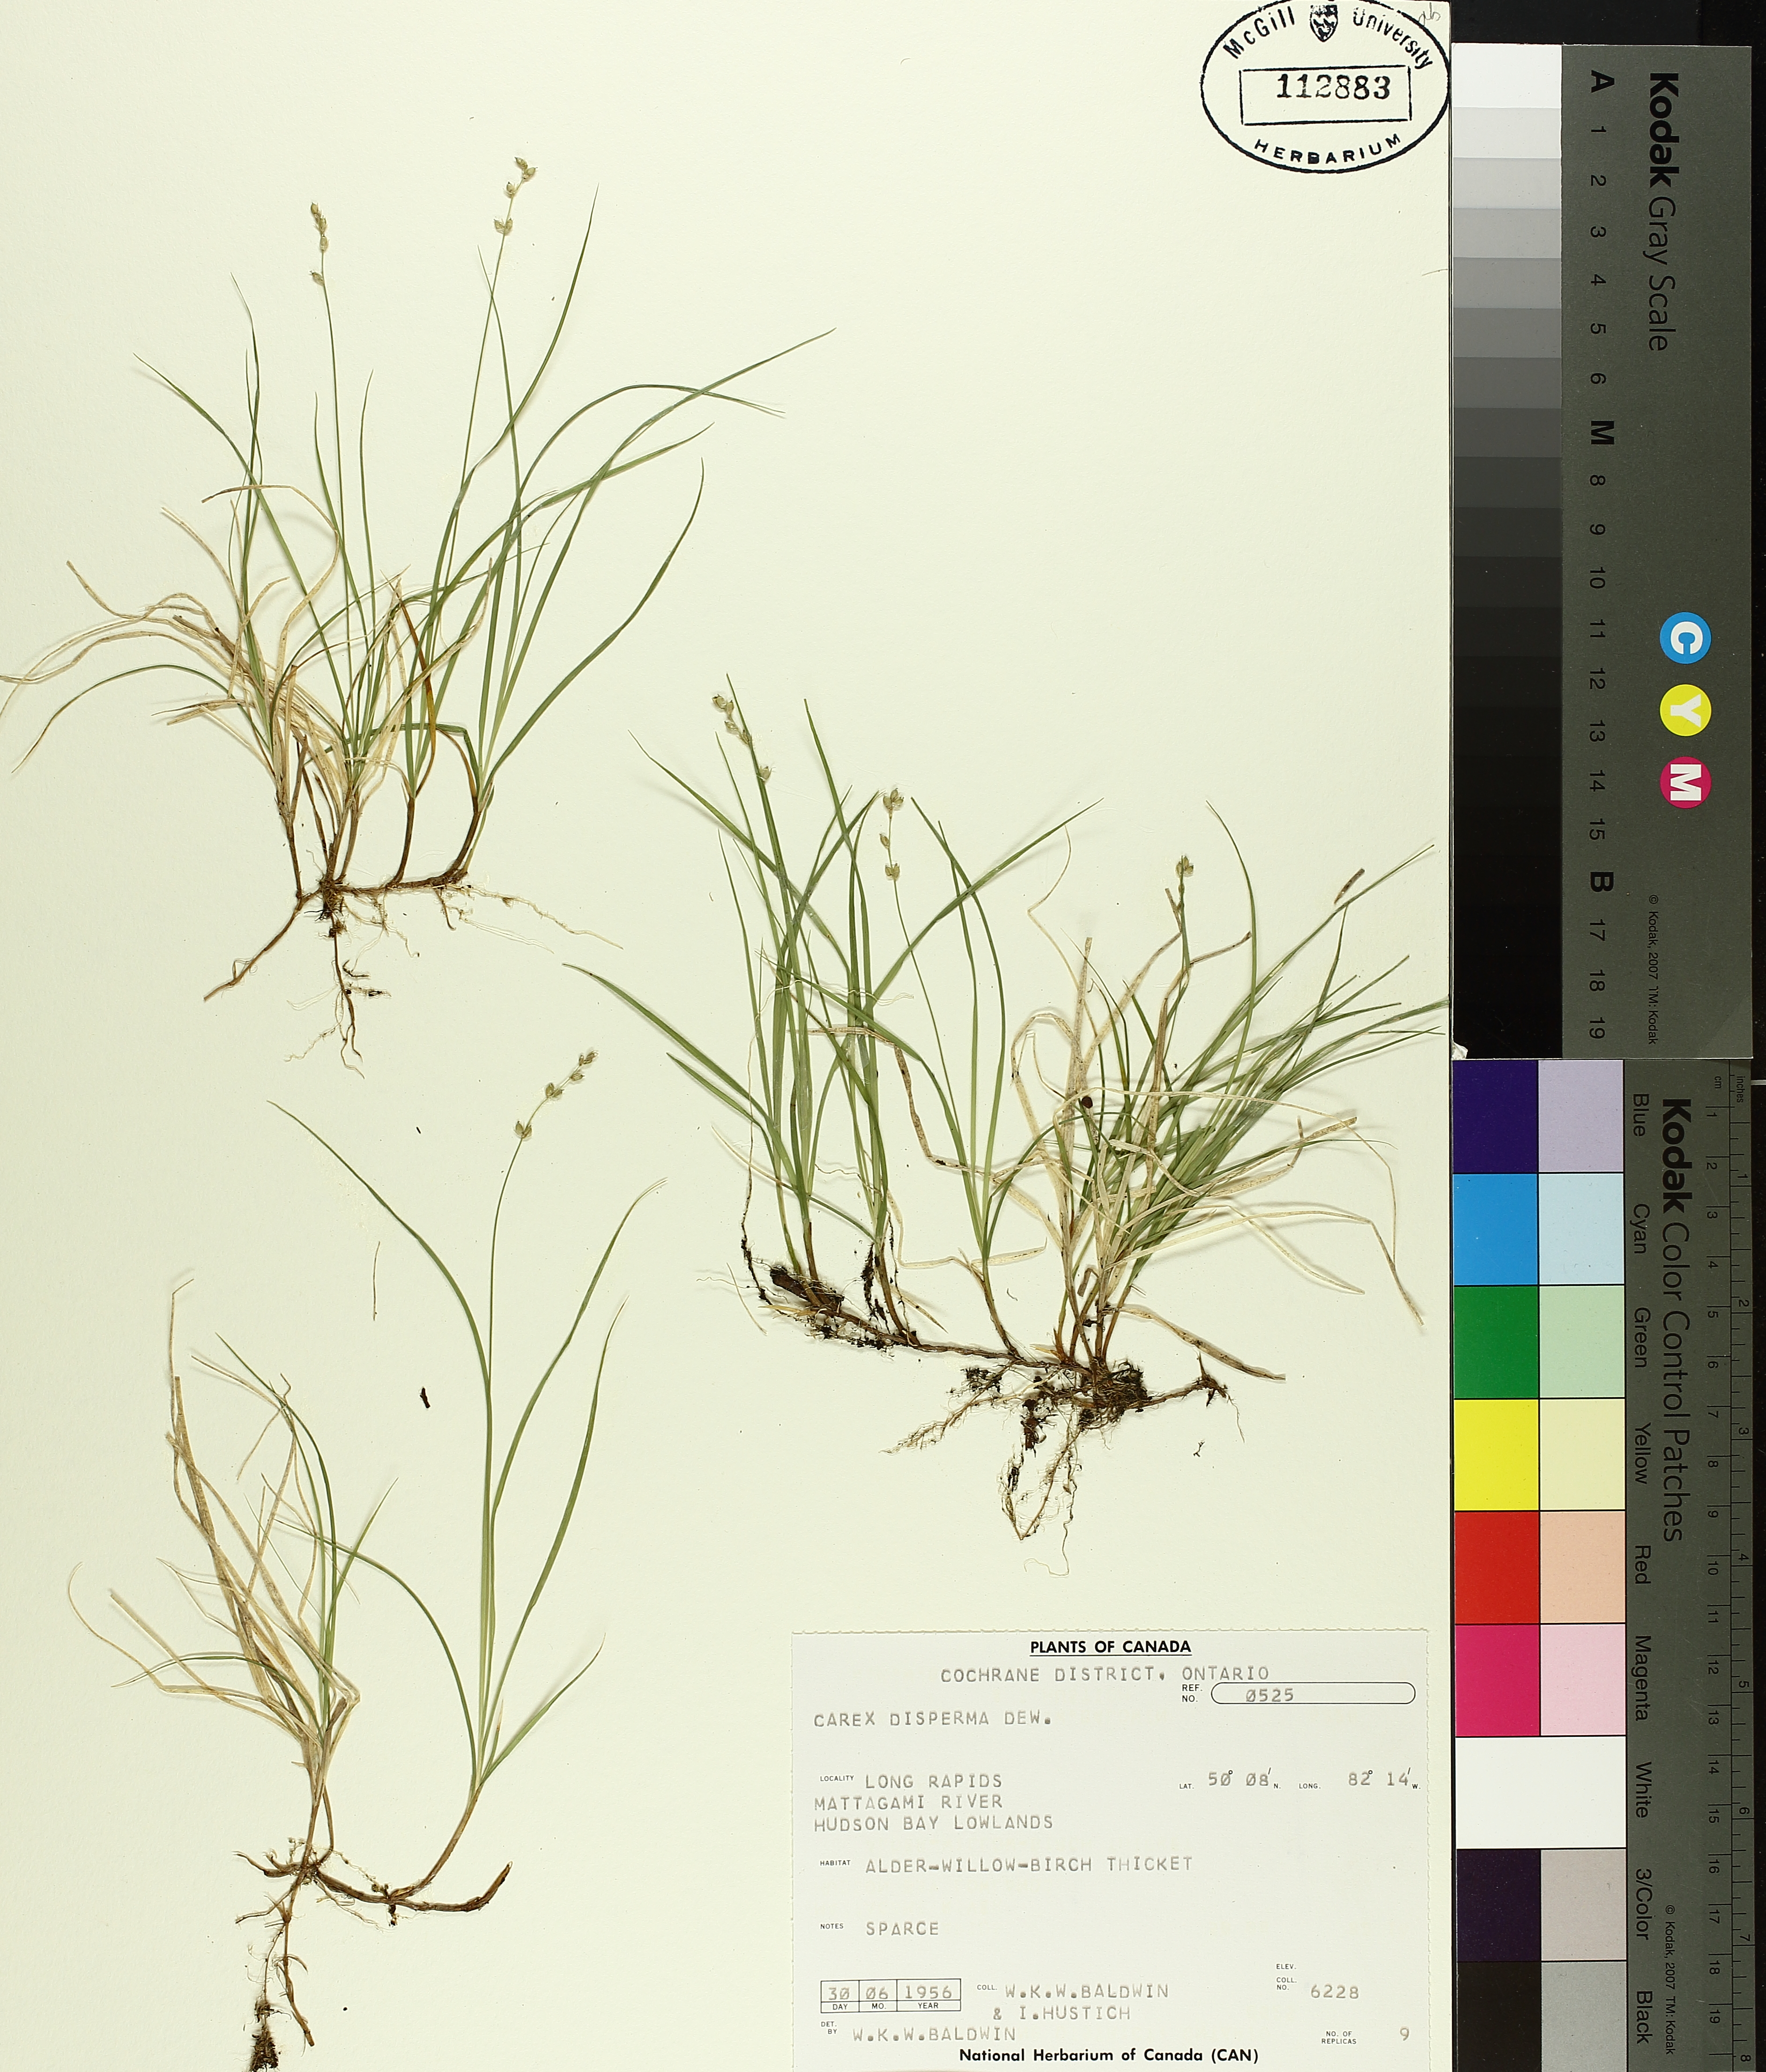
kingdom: Plantae
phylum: Tracheophyta
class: Liliopsida
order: Poales
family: Cyperaceae
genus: Carex
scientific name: Carex disperma
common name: Short-leaved sedge
